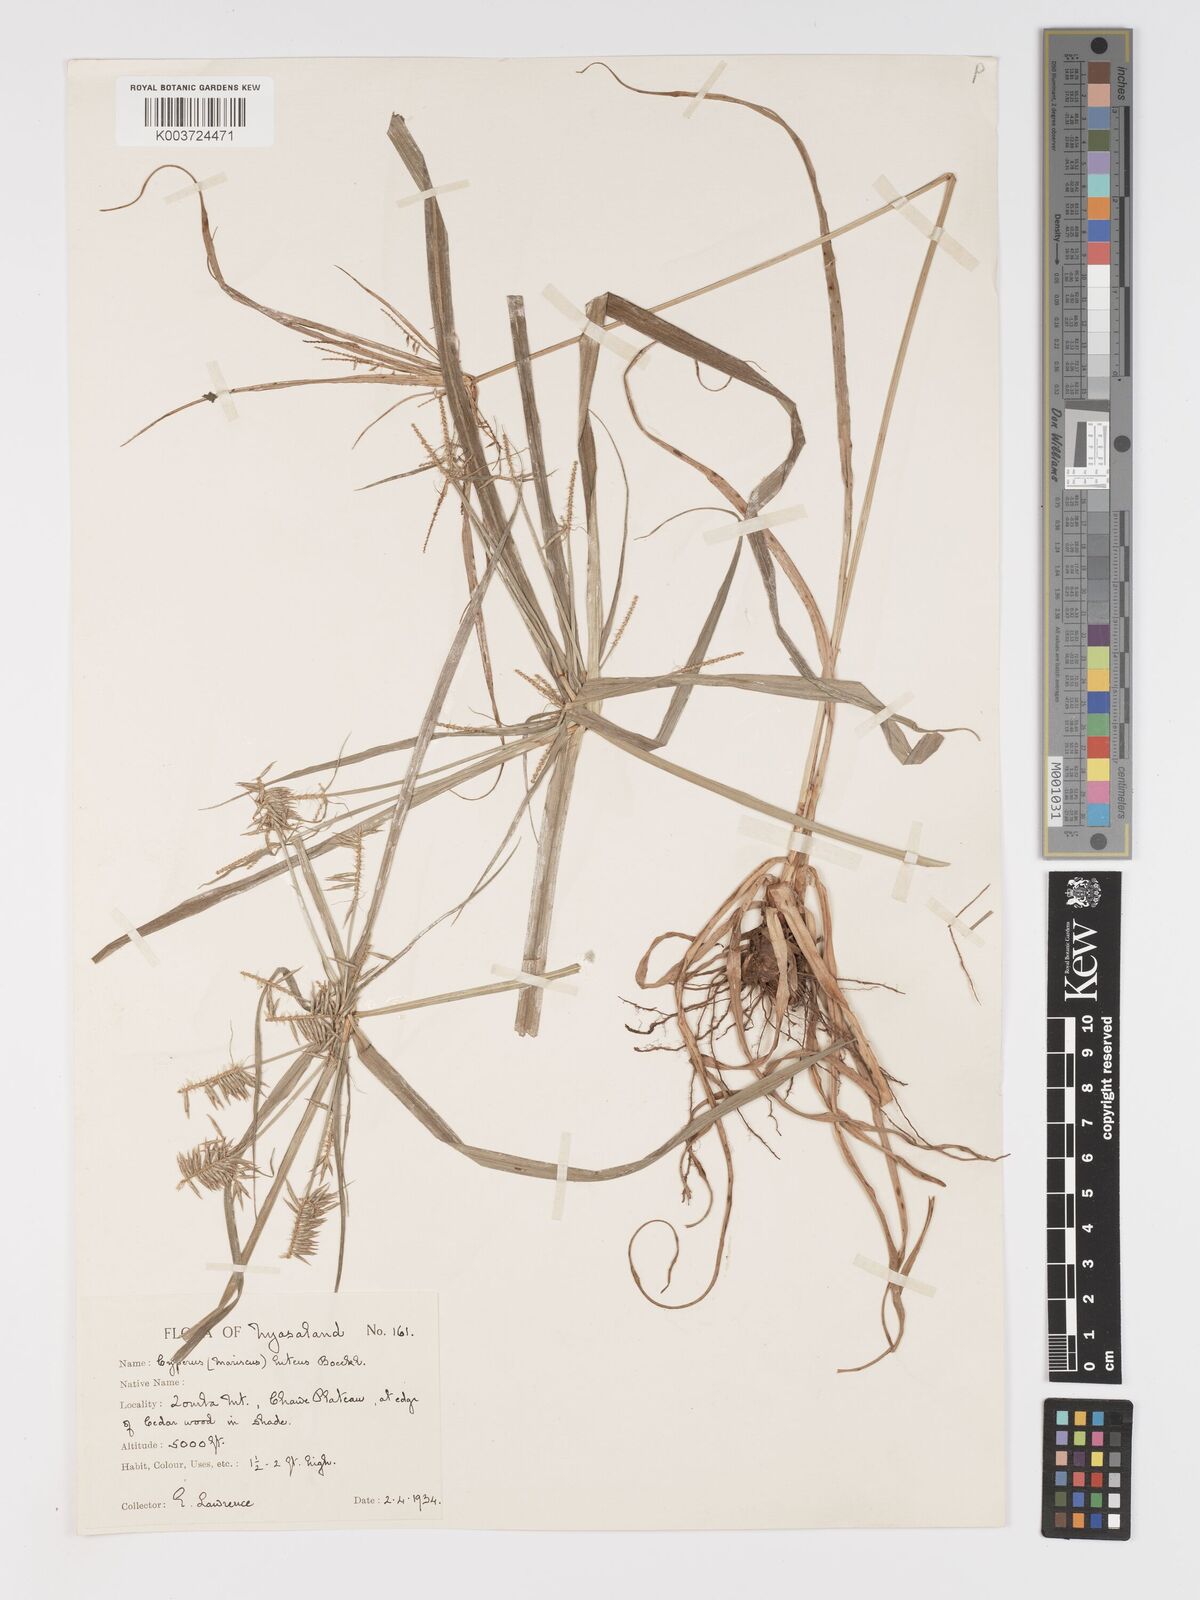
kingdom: Plantae
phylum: Tracheophyta
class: Liliopsida
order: Poales
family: Cyperaceae
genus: Cyperus
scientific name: Cyperus luteus
